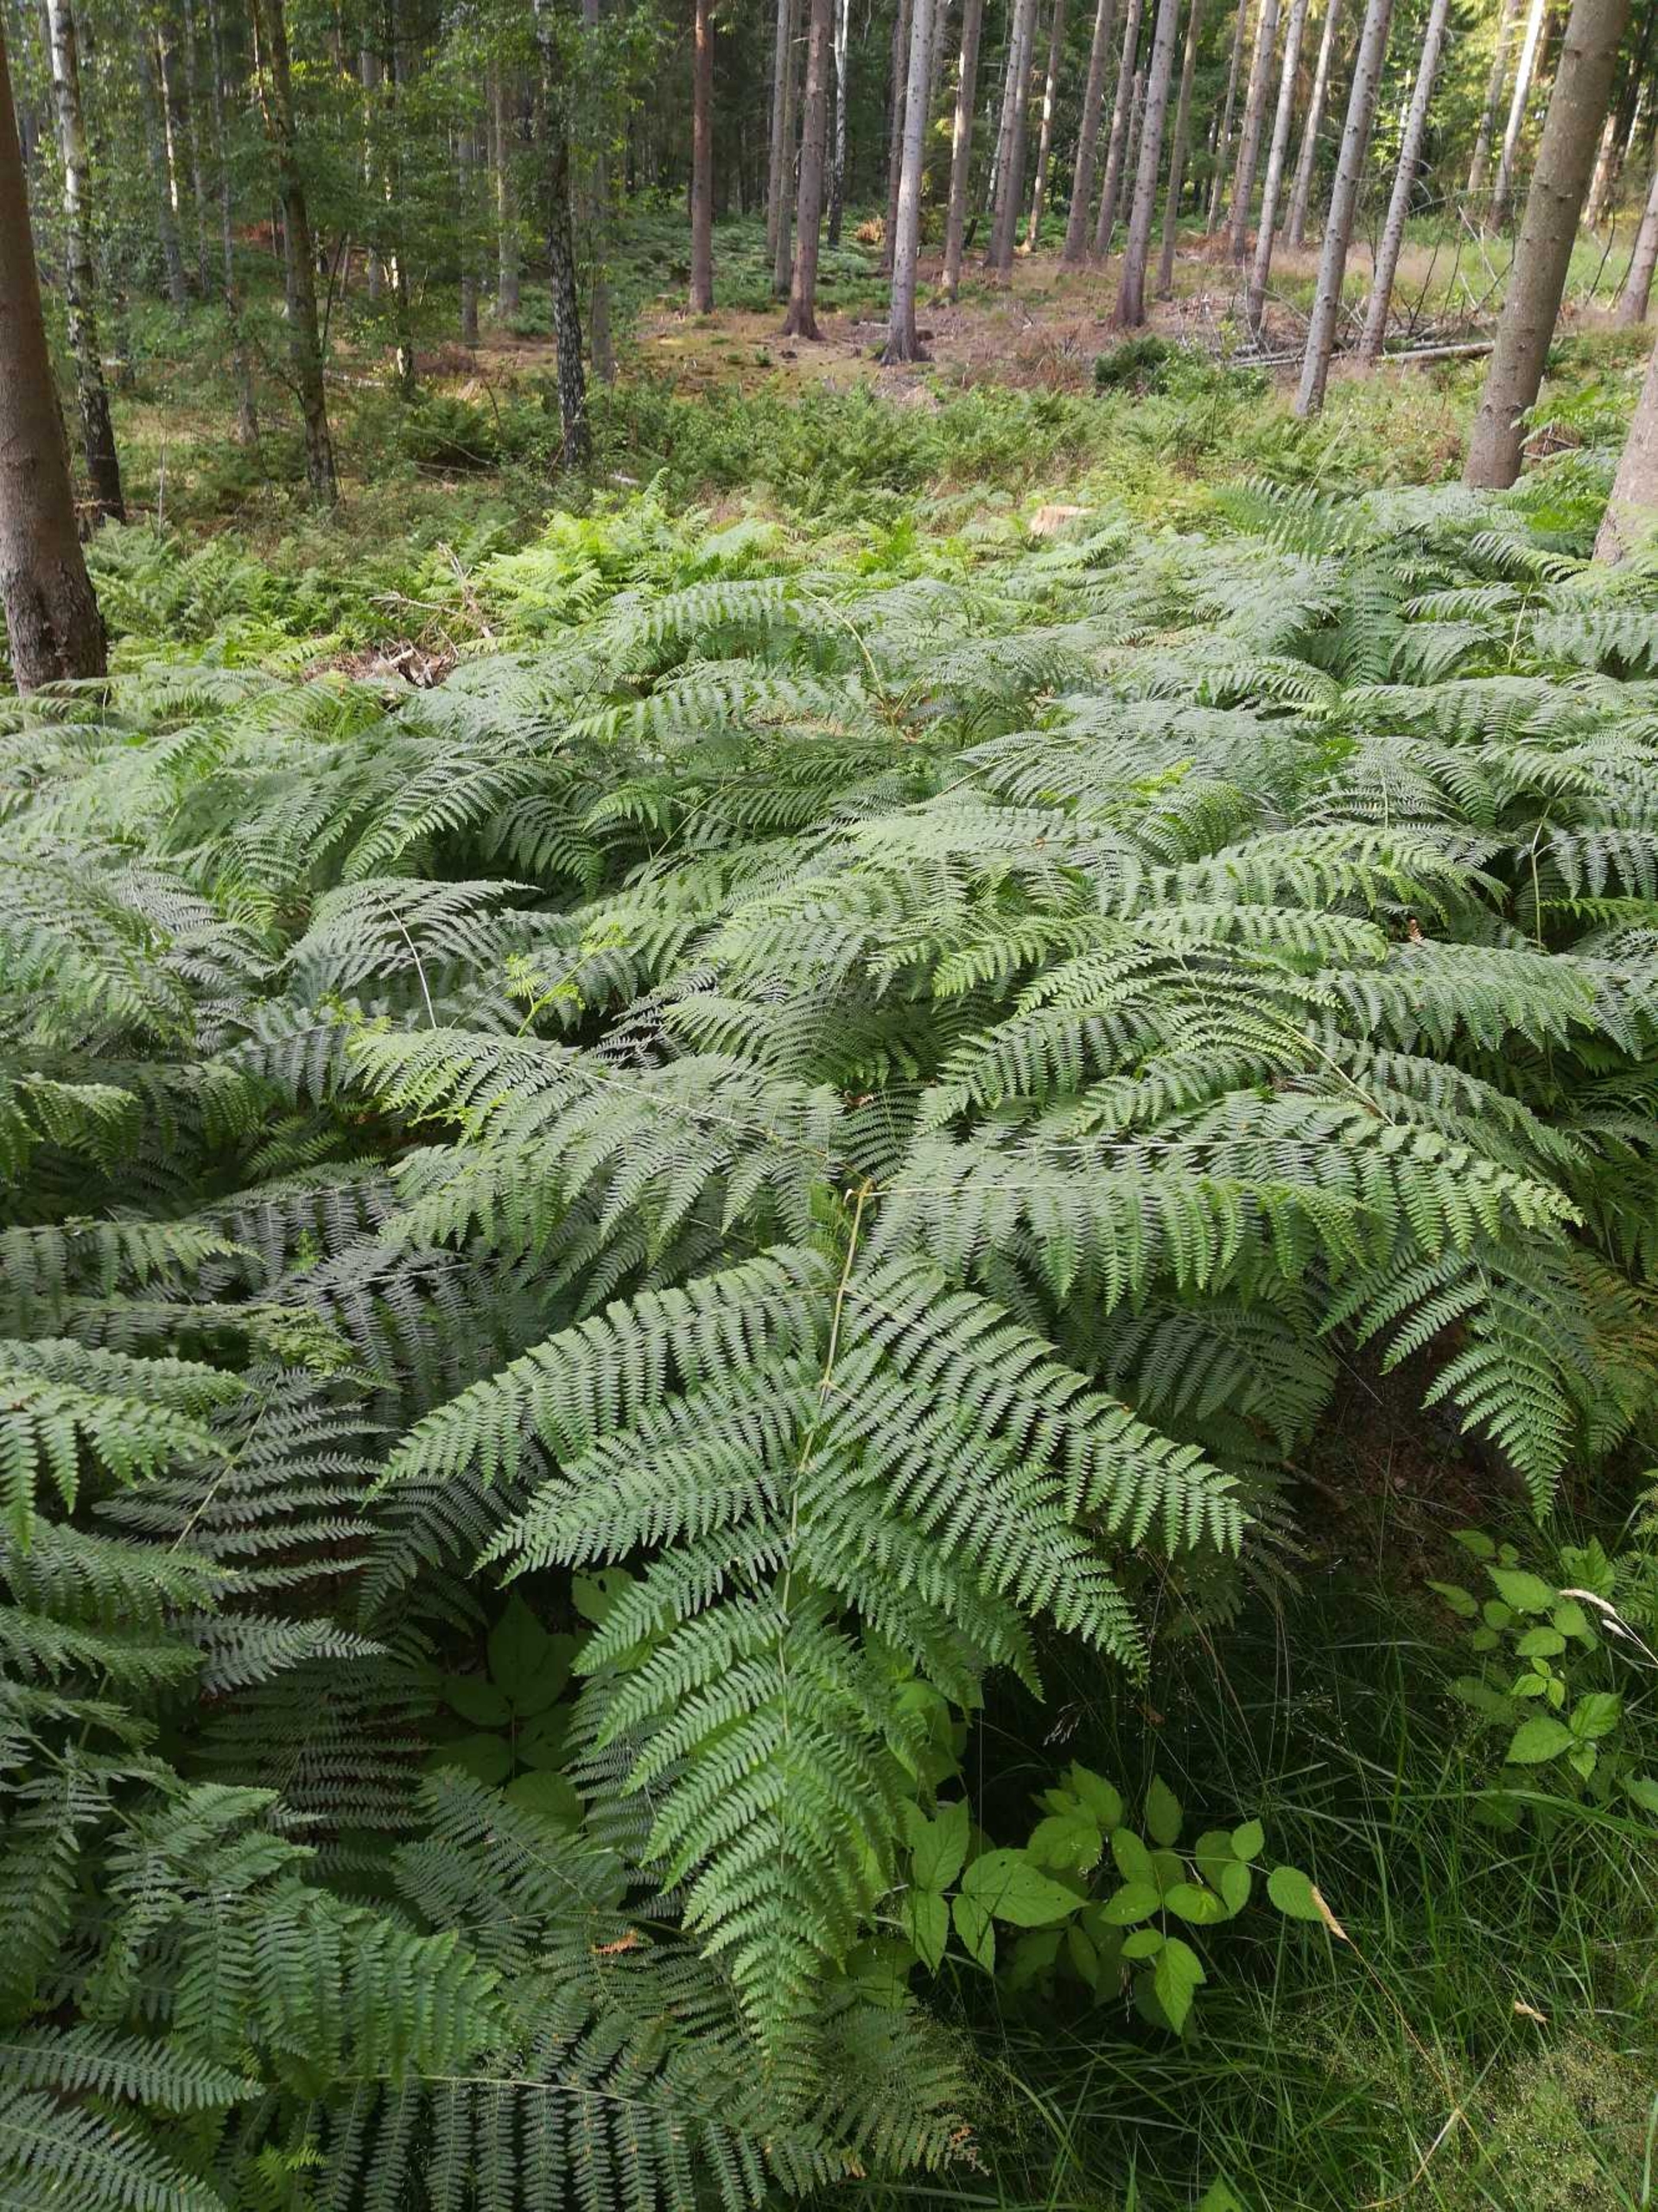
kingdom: Plantae
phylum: Tracheophyta
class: Polypodiopsida
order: Polypodiales
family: Dennstaedtiaceae
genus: Pteridium
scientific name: Pteridium aquilinum
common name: Ørnebregne
